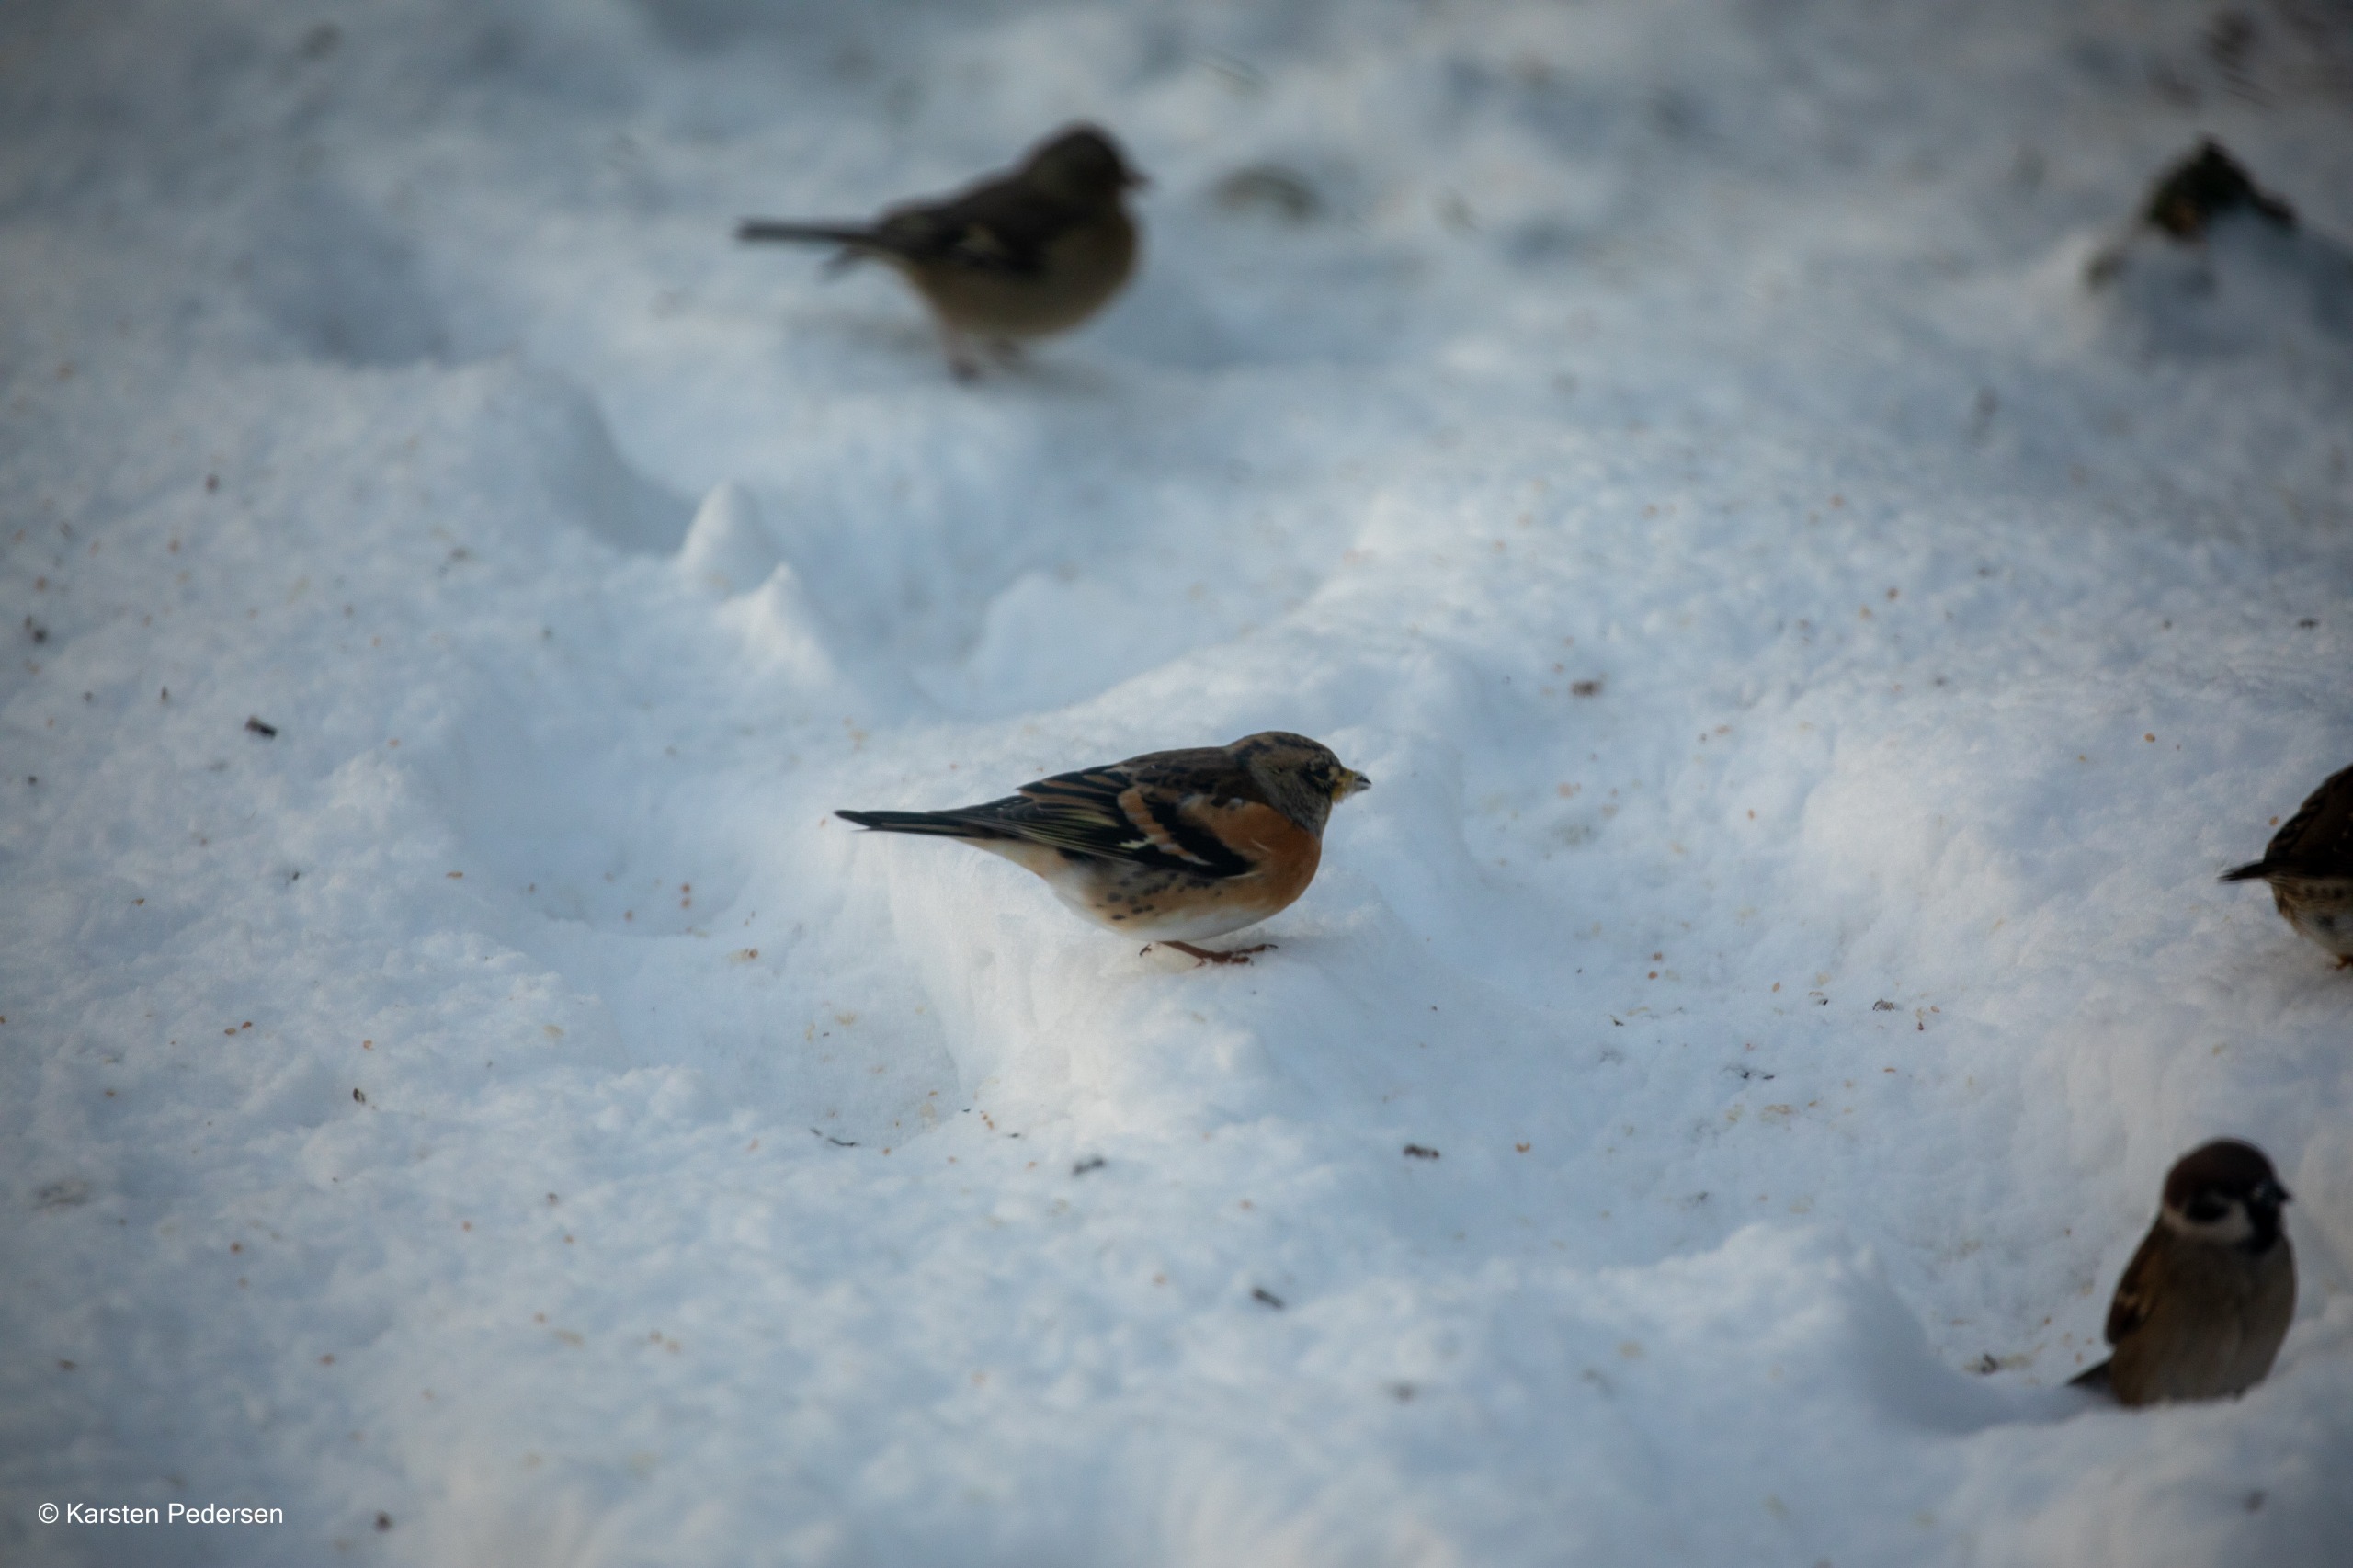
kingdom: Animalia
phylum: Chordata
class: Aves
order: Passeriformes
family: Fringillidae
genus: Fringilla
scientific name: Fringilla montifringilla
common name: Kvækerfinke
